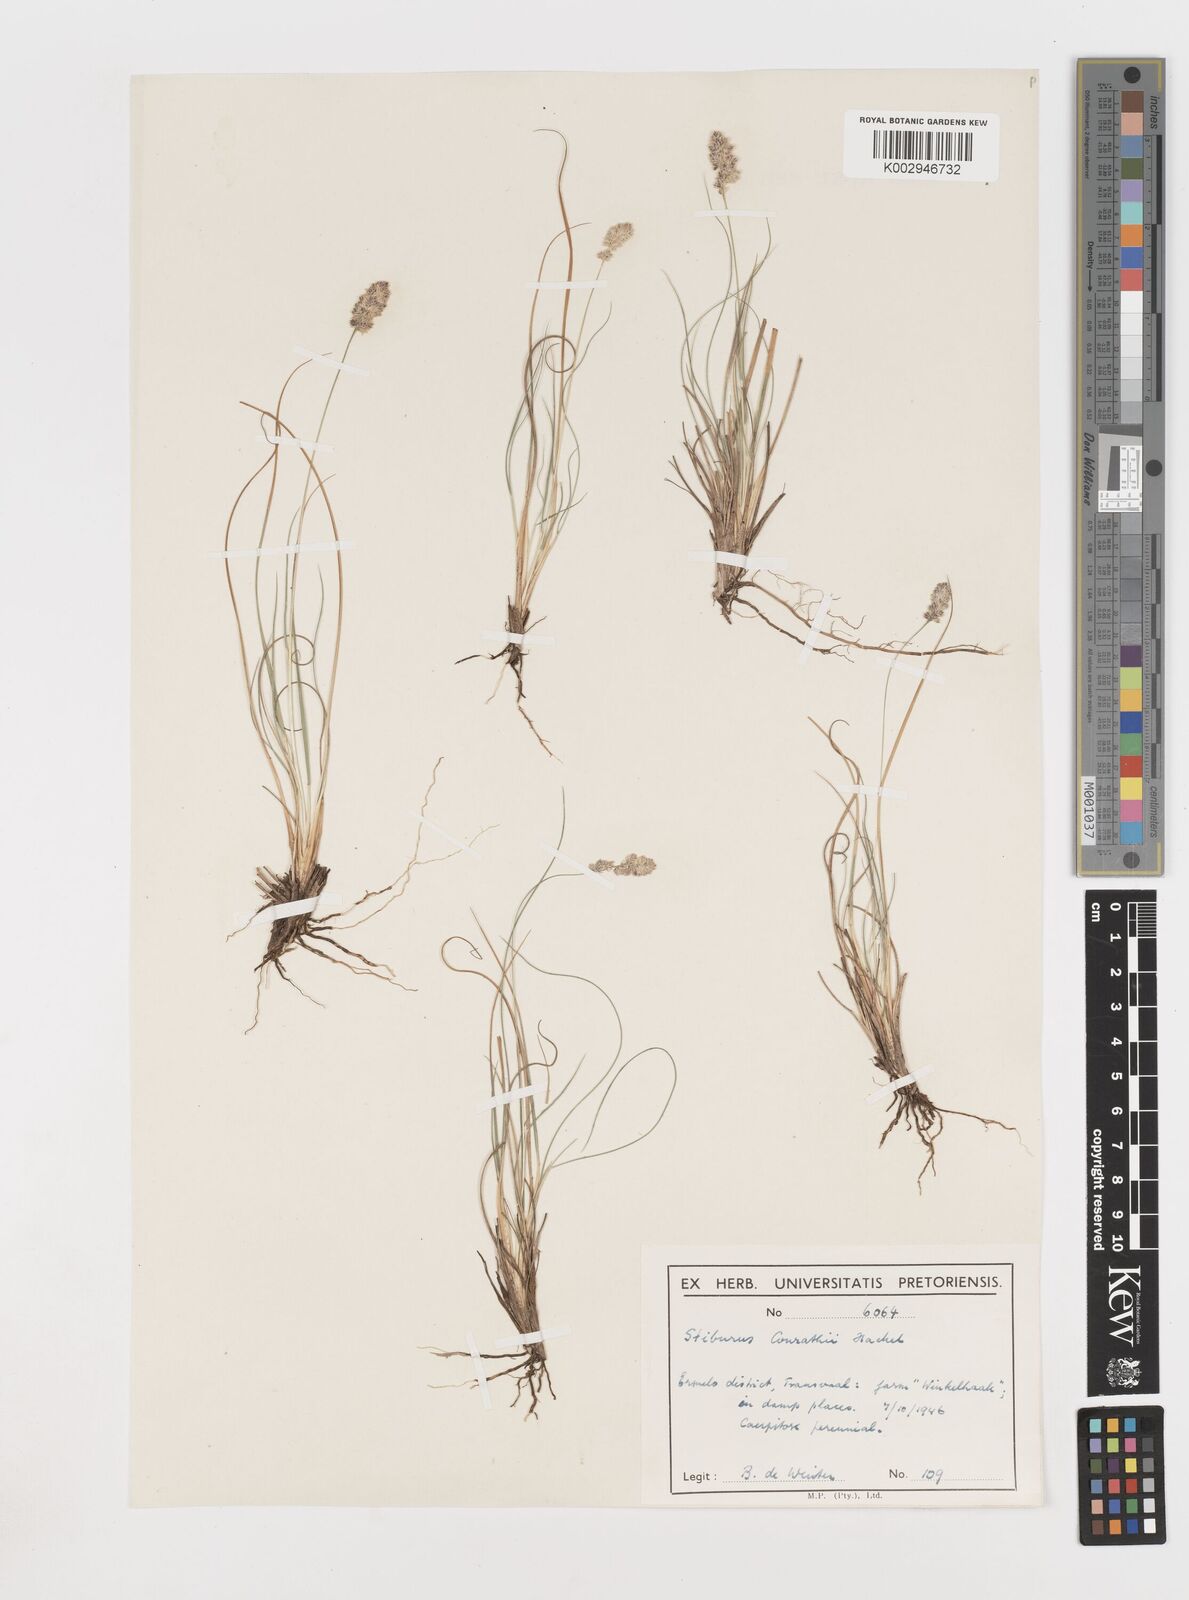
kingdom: Plantae
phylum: Tracheophyta
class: Liliopsida
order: Poales
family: Poaceae
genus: Stiburus
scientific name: Stiburus conrathii
